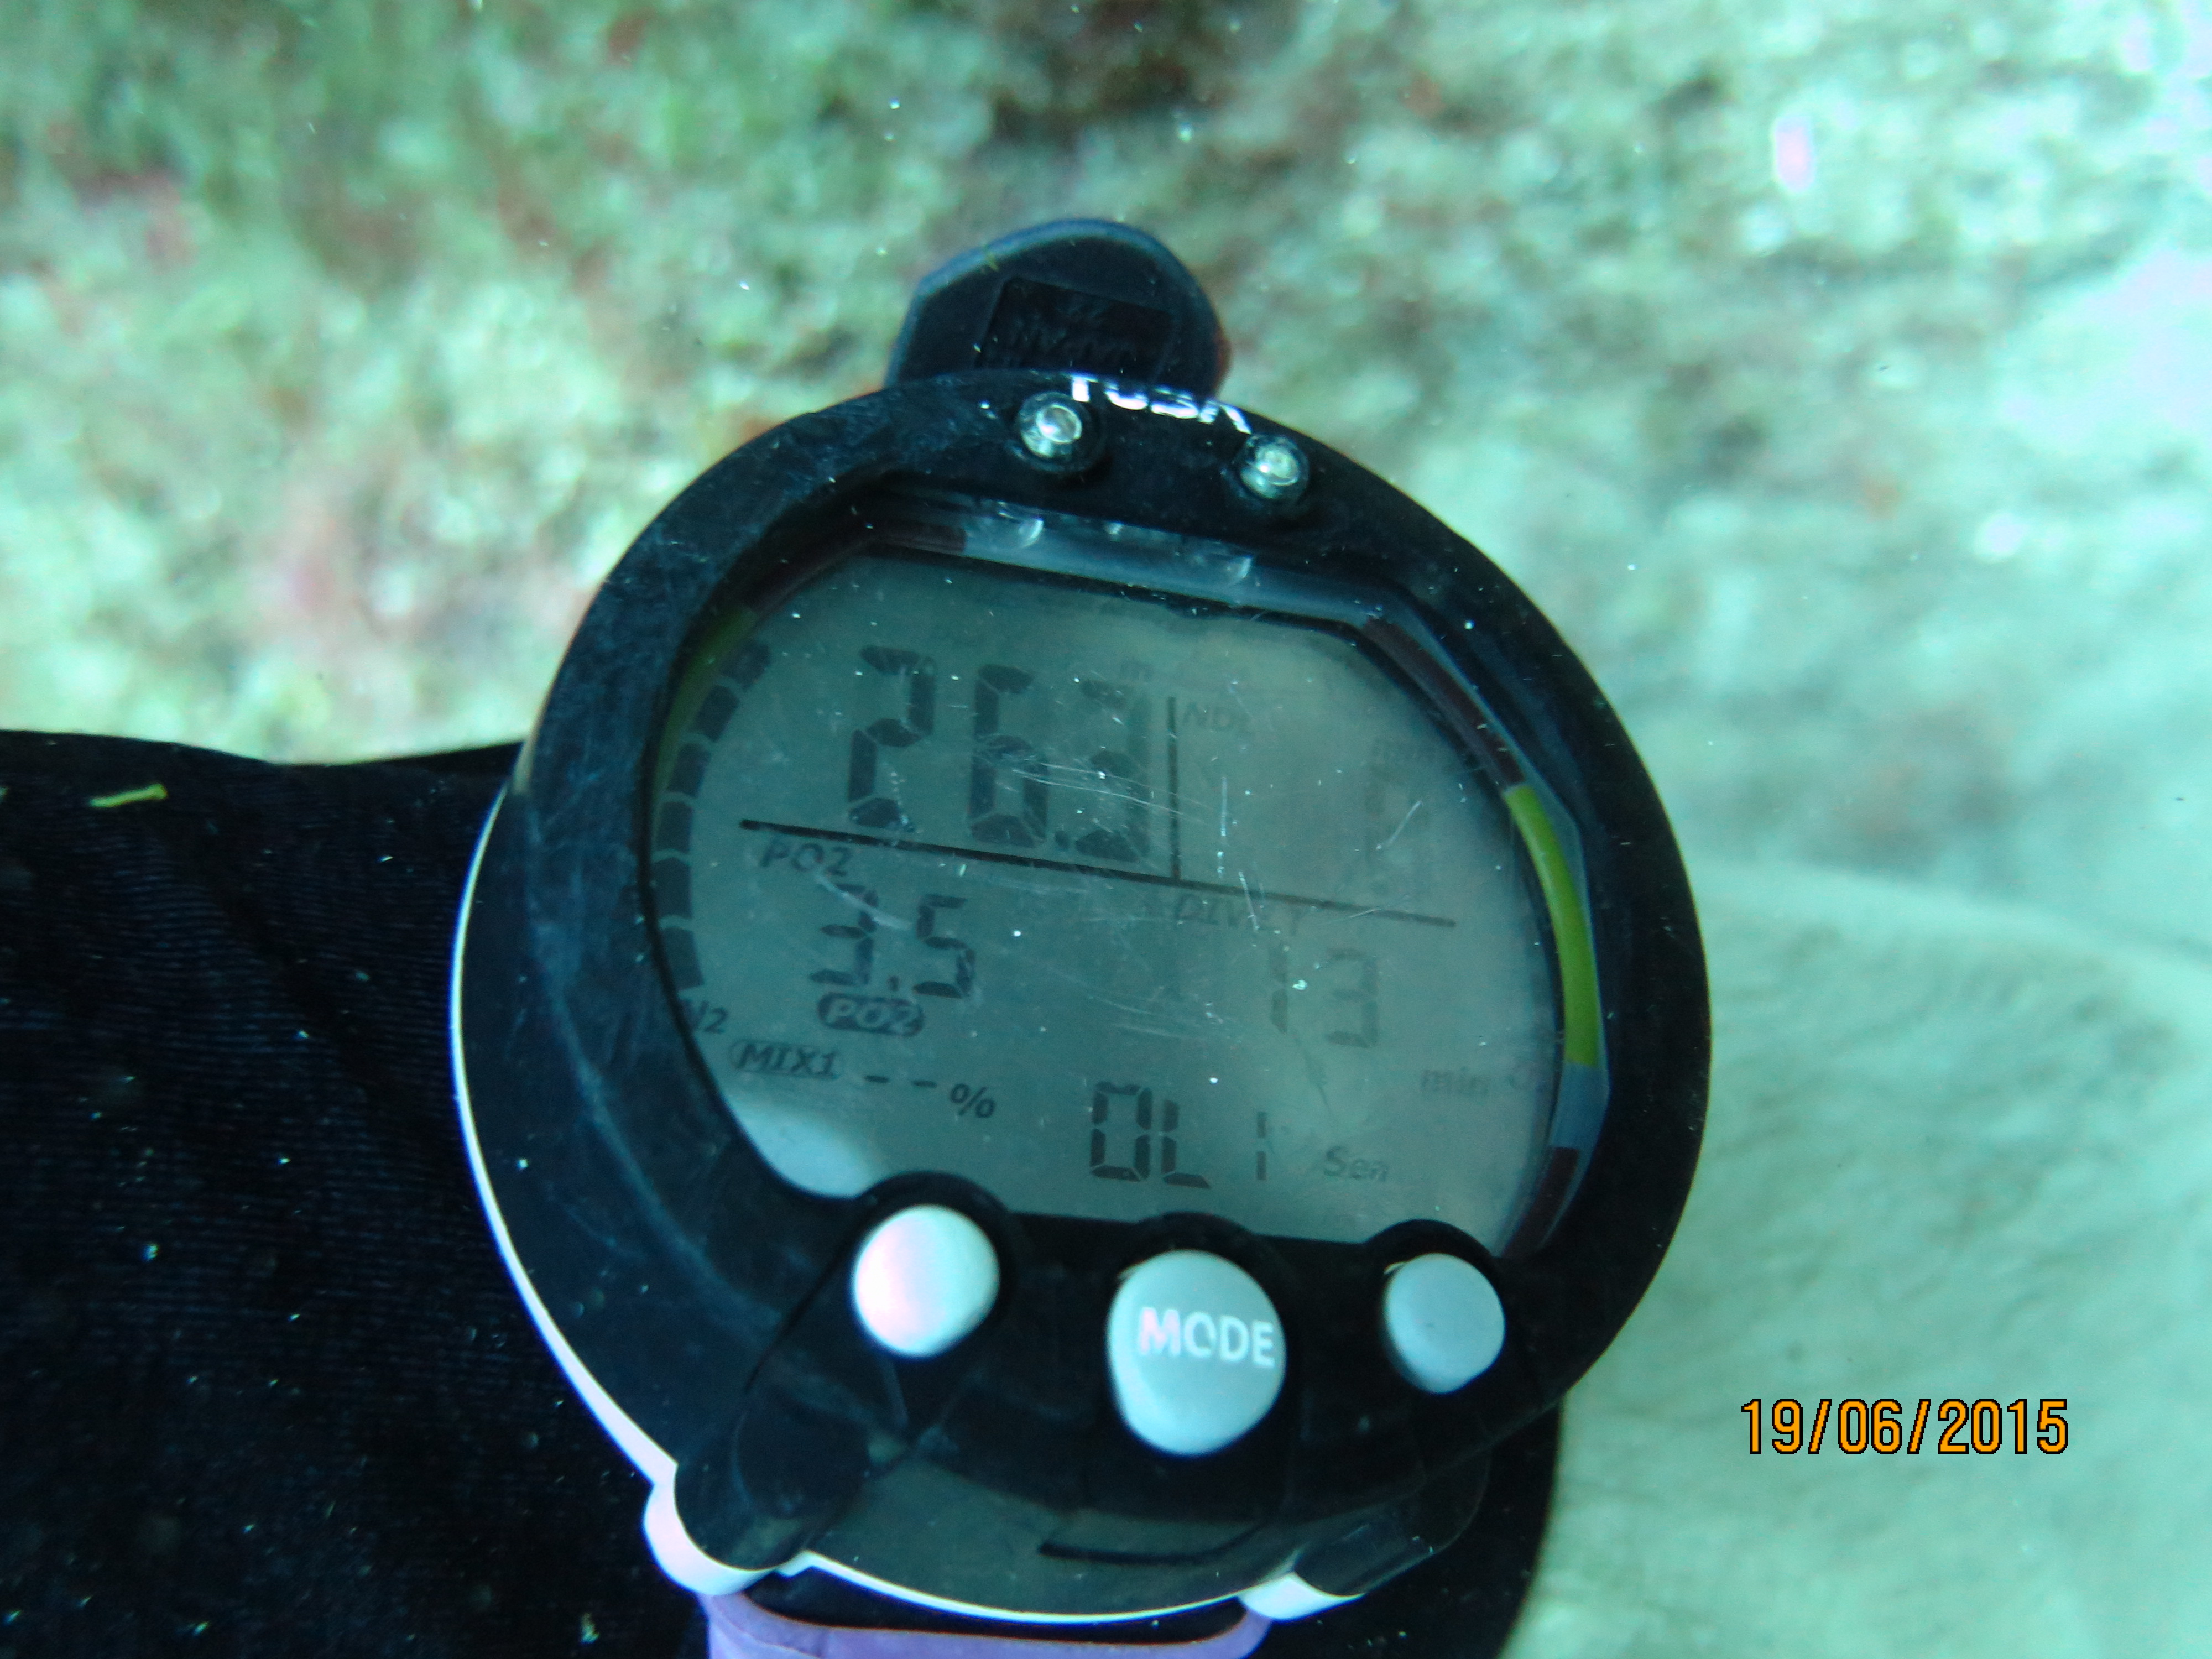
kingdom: Animalia
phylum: Cnidaria
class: Anthozoa
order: Scleractinia
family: Poritidae
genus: Porites
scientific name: Porites astreoides
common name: Mustard hill coral
